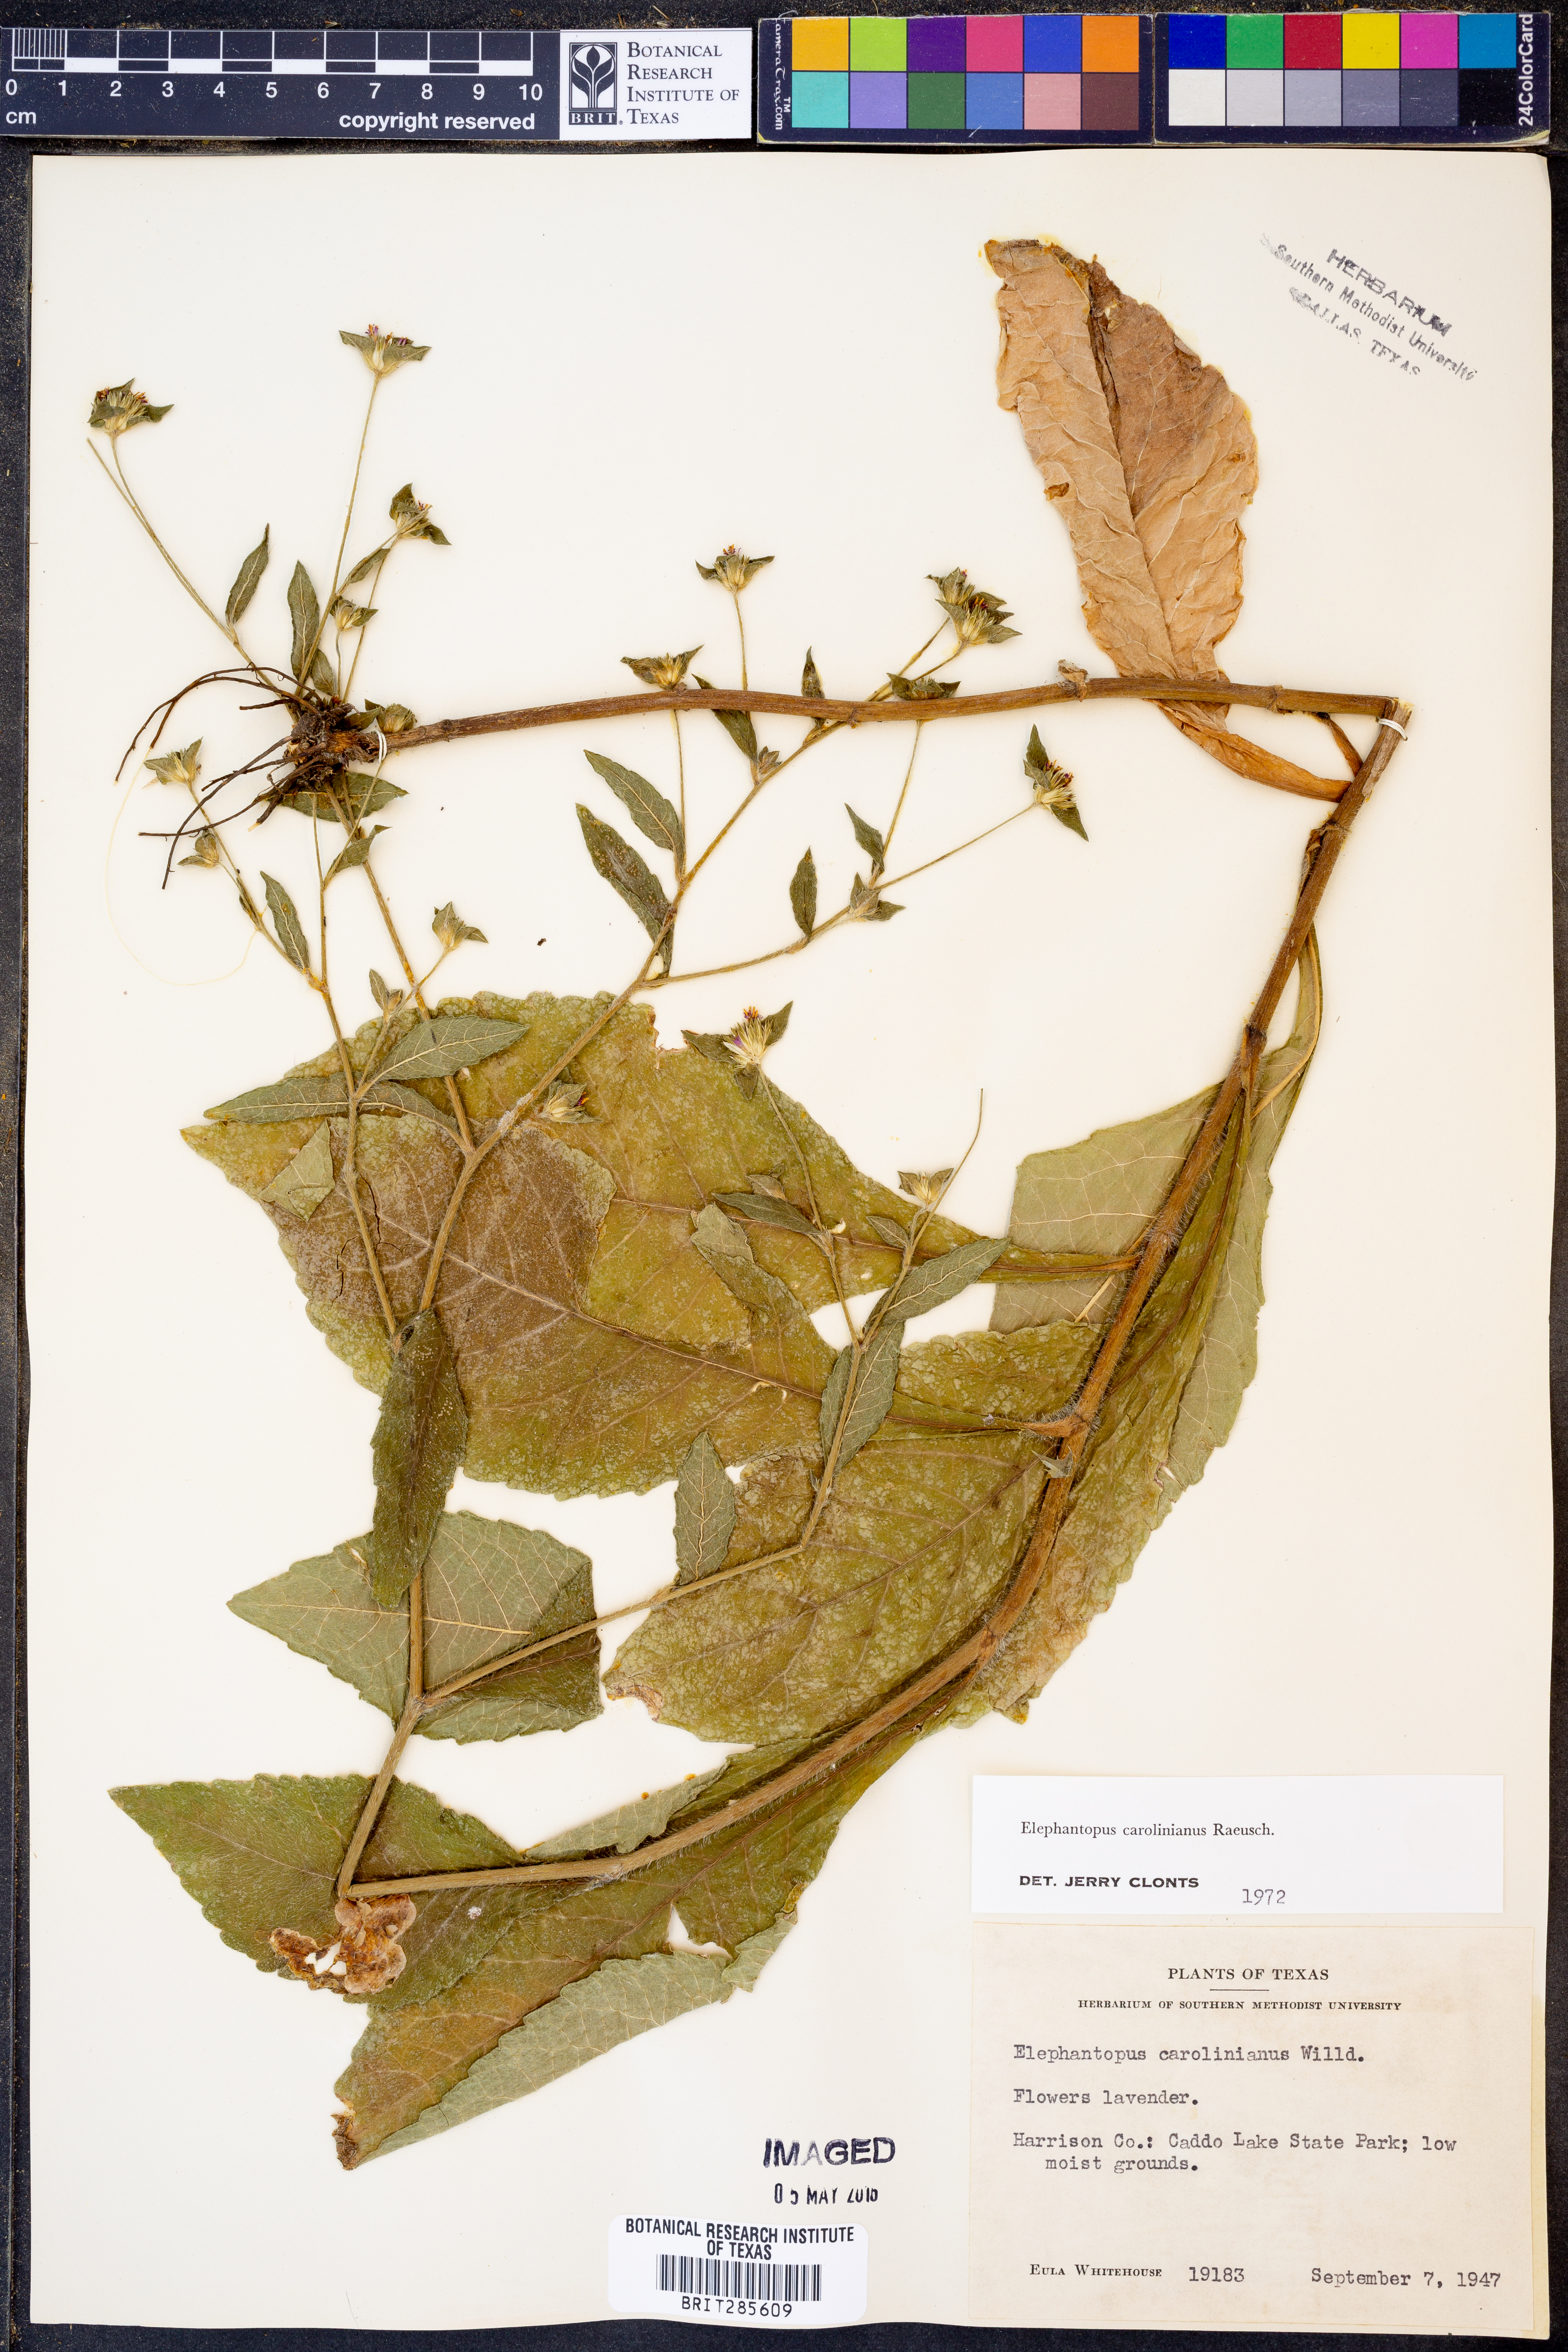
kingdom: Plantae
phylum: Tracheophyta
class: Magnoliopsida
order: Asterales
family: Asteraceae
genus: Elephantopus
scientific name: Elephantopus carolinianus
